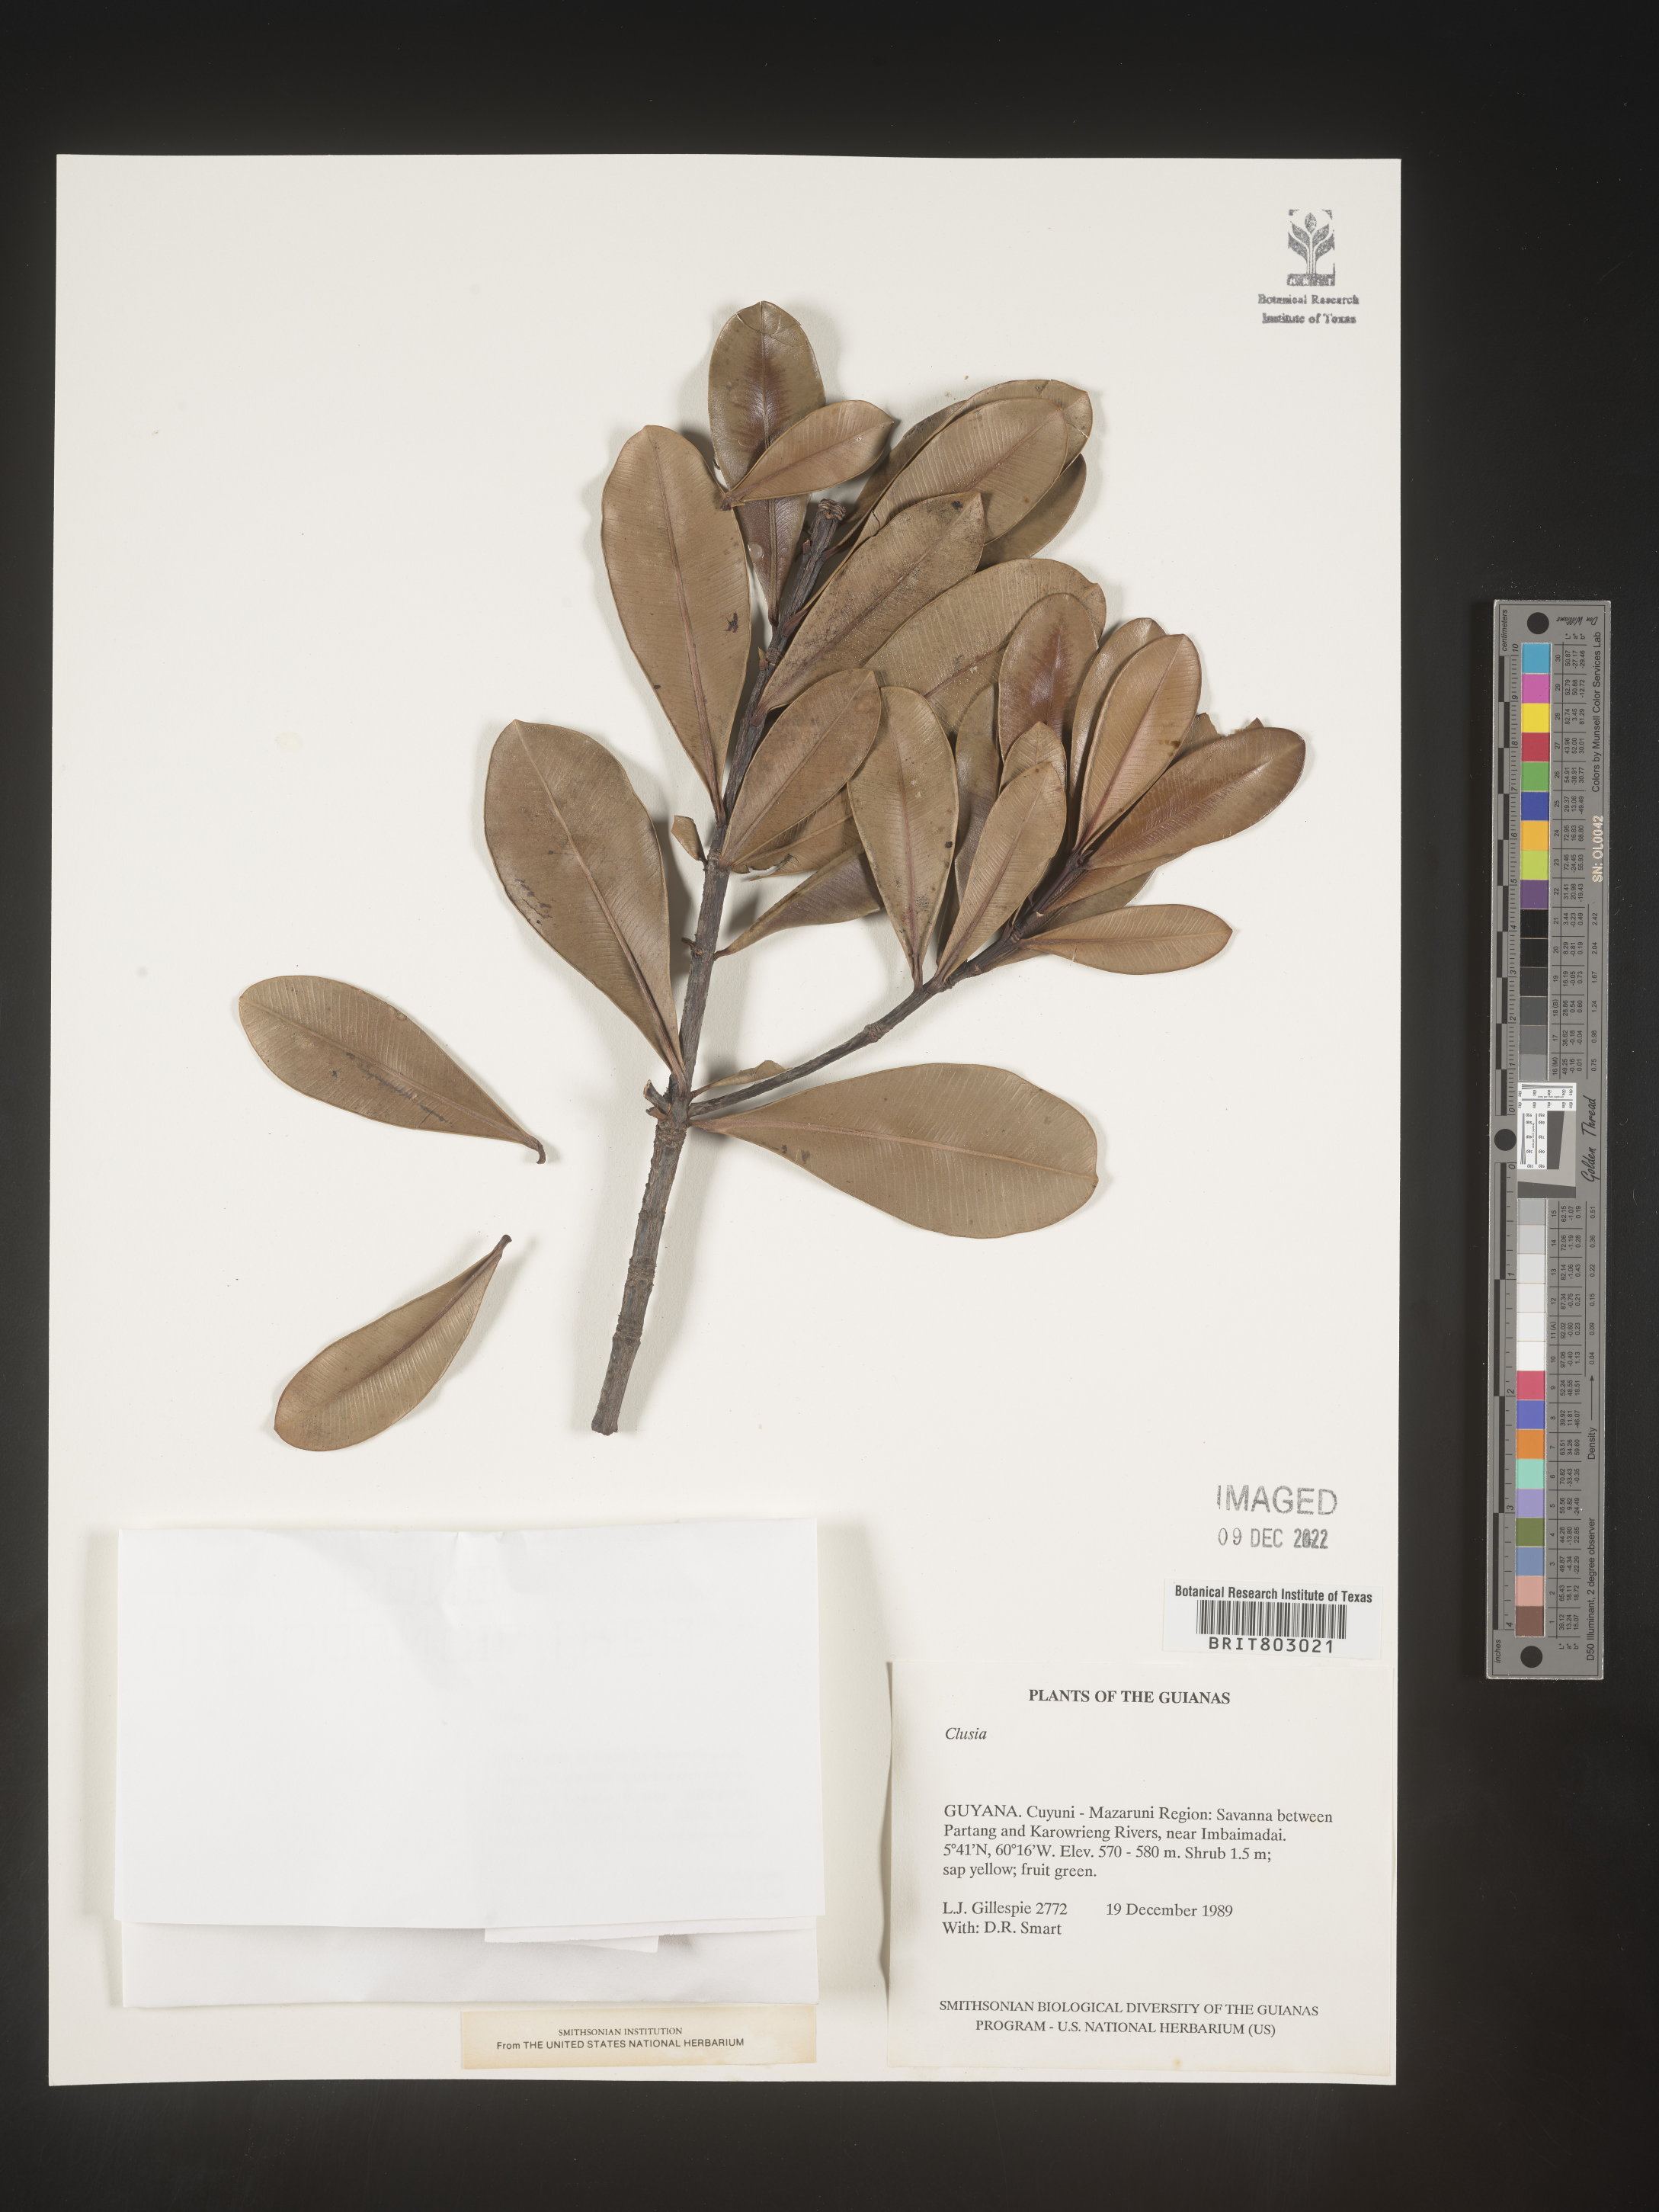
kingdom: Plantae
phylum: Tracheophyta
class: Magnoliopsida
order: Malpighiales
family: Clusiaceae
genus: Moronobea
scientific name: Moronobea
